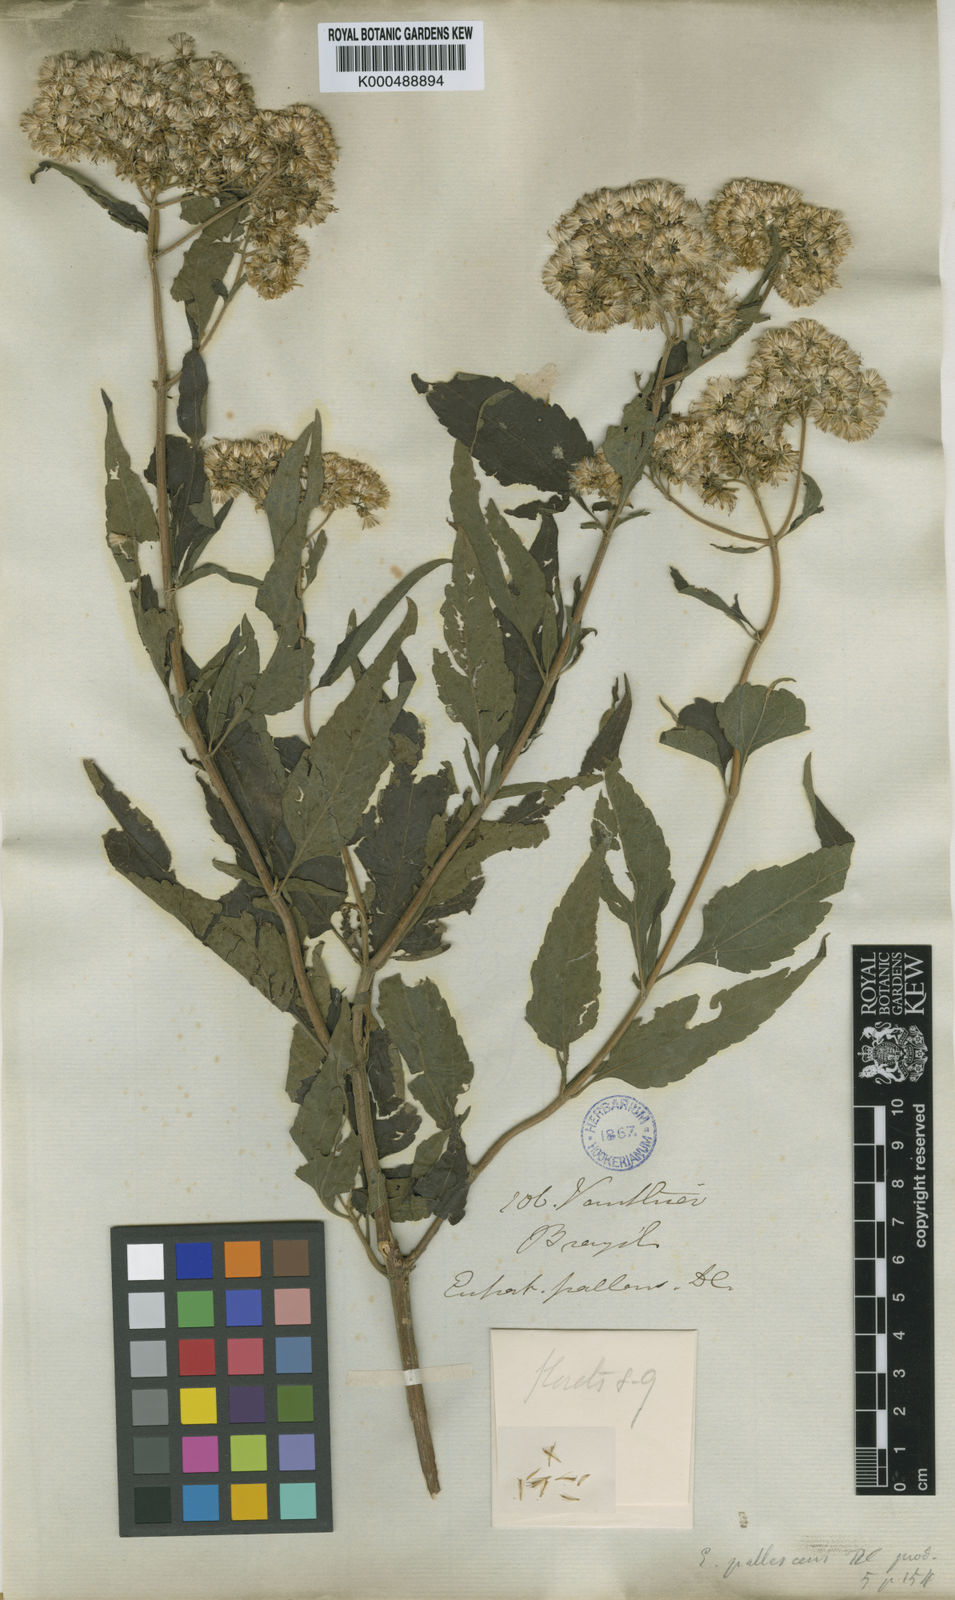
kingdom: Plantae
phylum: Tracheophyta
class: Magnoliopsida
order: Asterales
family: Asteraceae
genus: Austroeupatorium
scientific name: Austroeupatorium inulifolium
